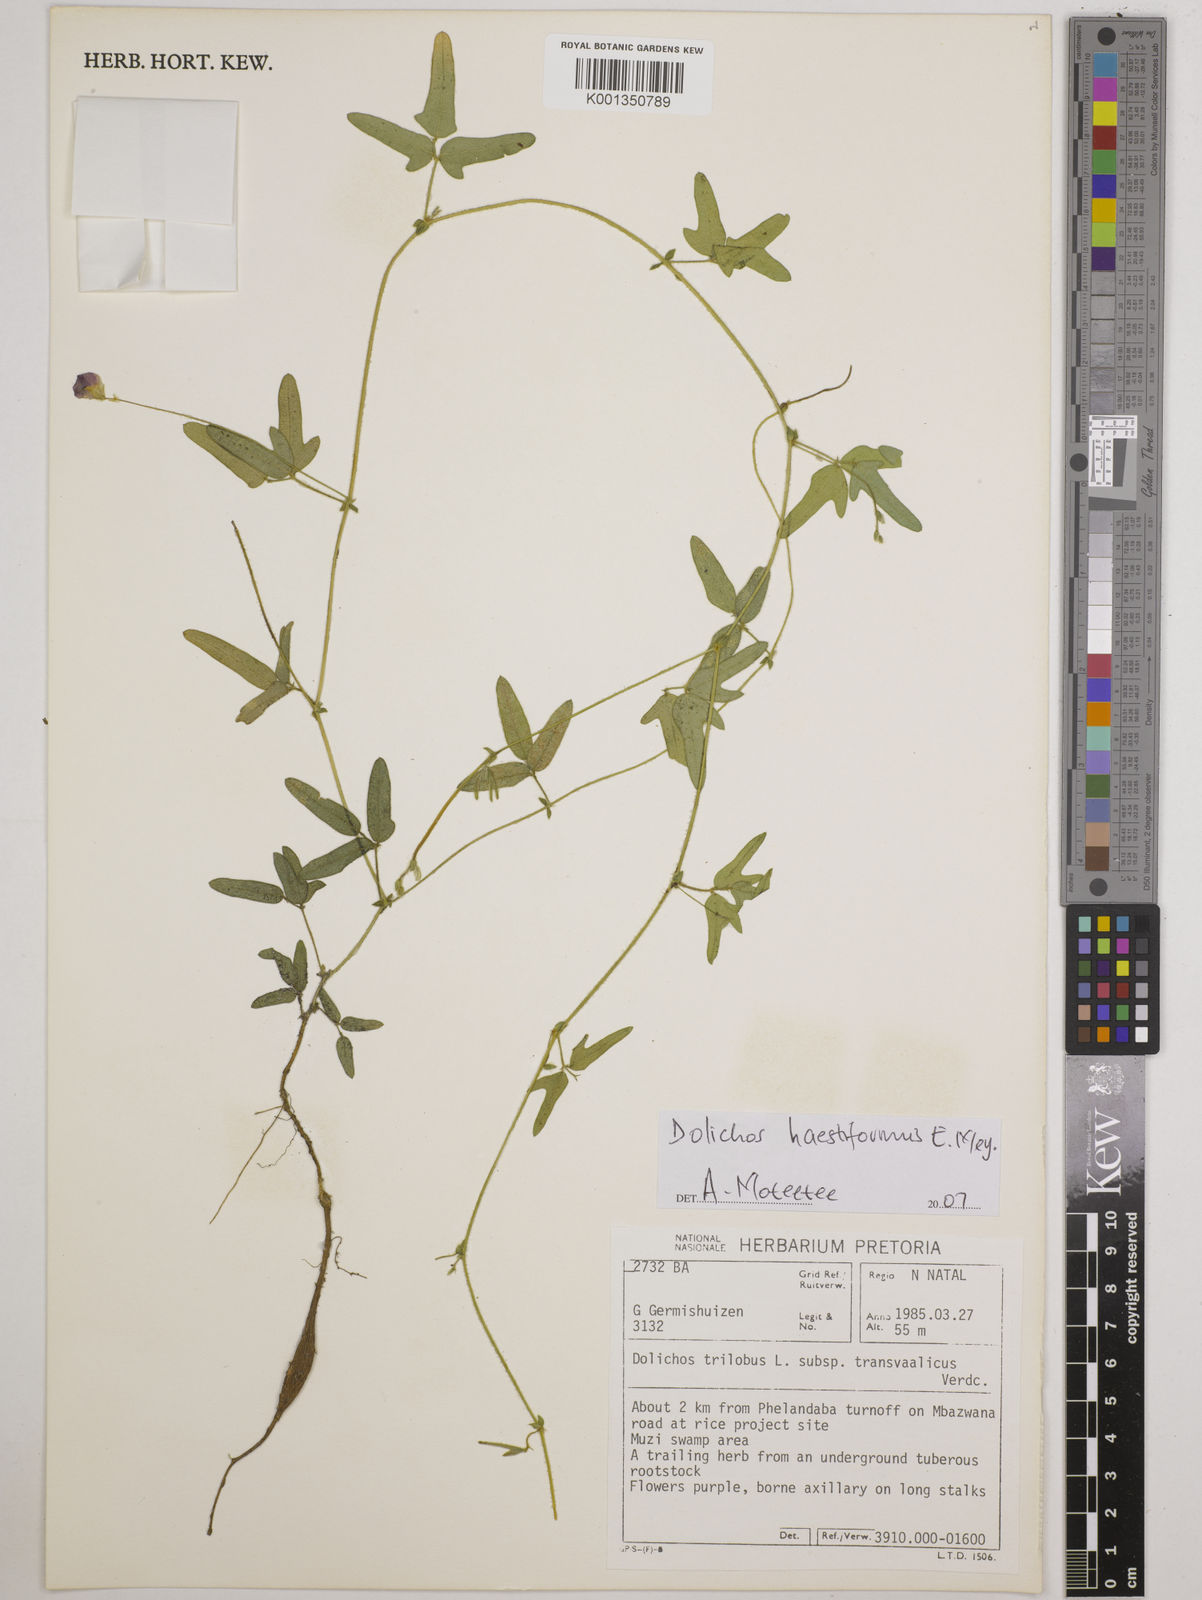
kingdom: Plantae
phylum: Tracheophyta
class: Magnoliopsida
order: Fabales
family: Fabaceae
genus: Dolichos
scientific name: Dolichos
